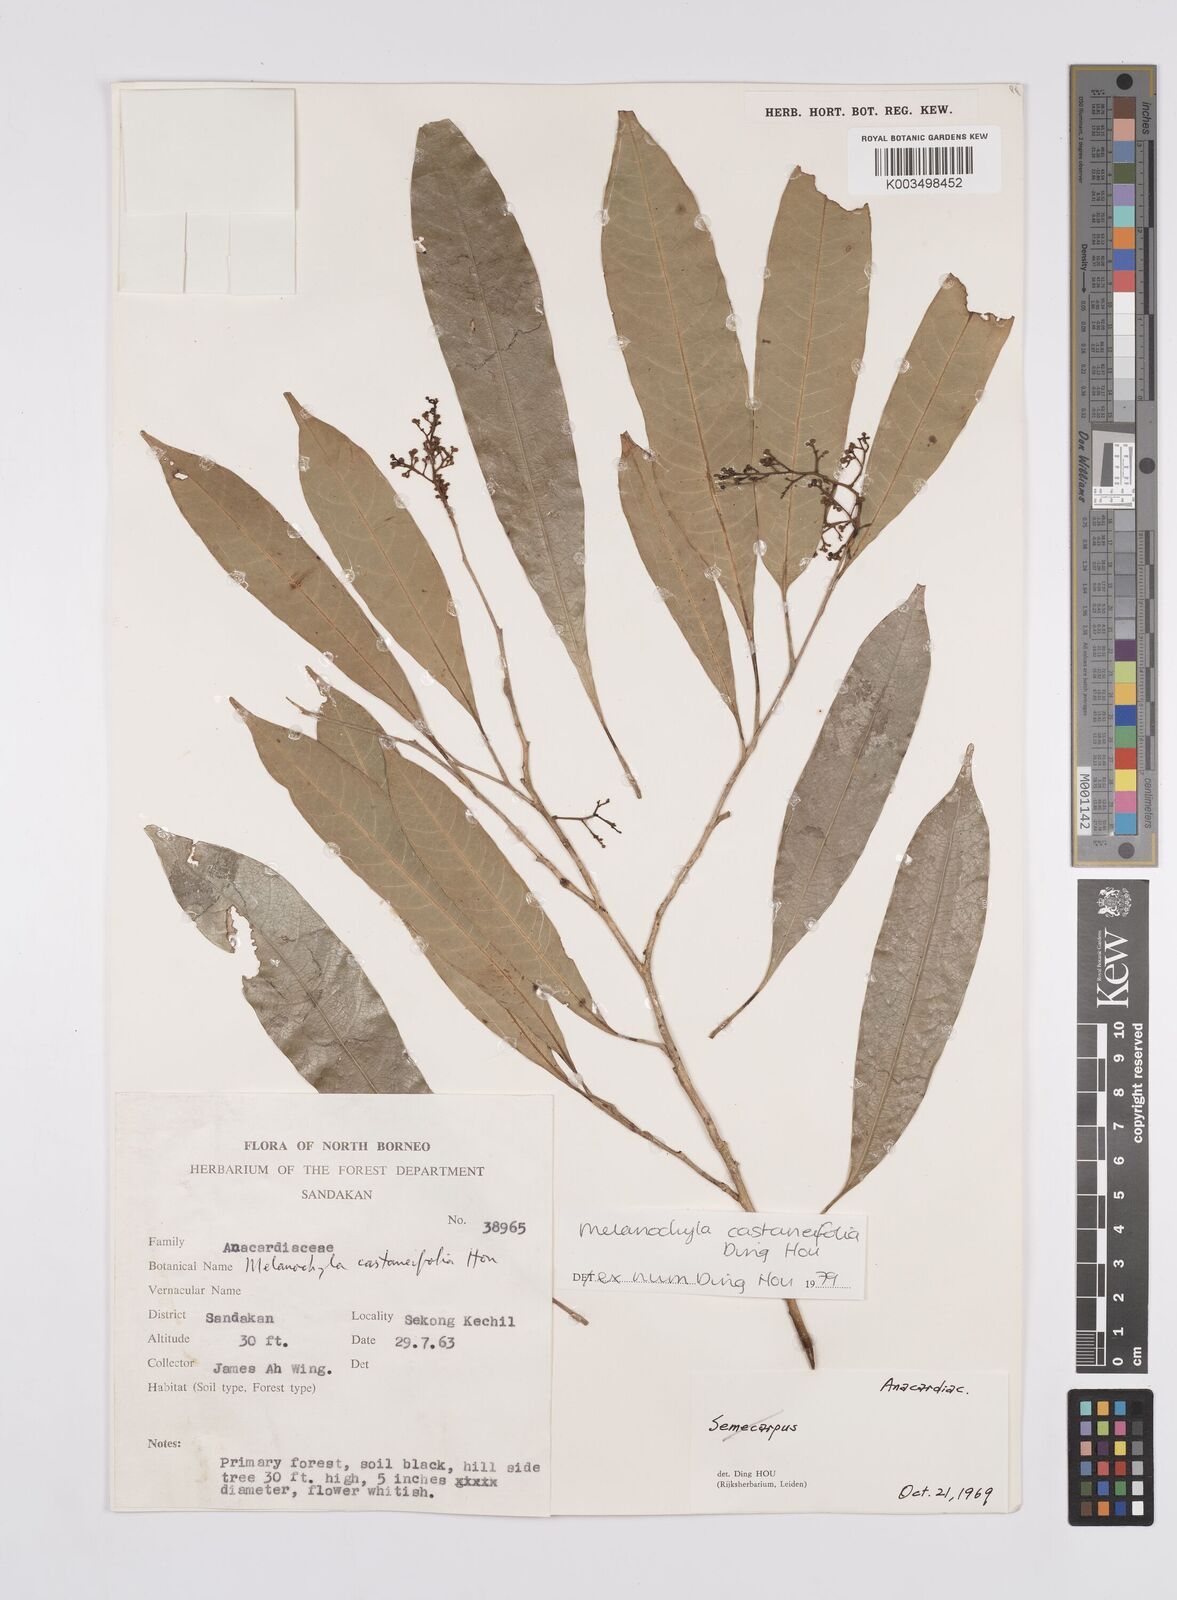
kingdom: Plantae
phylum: Tracheophyta
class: Magnoliopsida
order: Sapindales
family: Anacardiaceae
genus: Melanochyla
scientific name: Melanochyla castaneifolia
